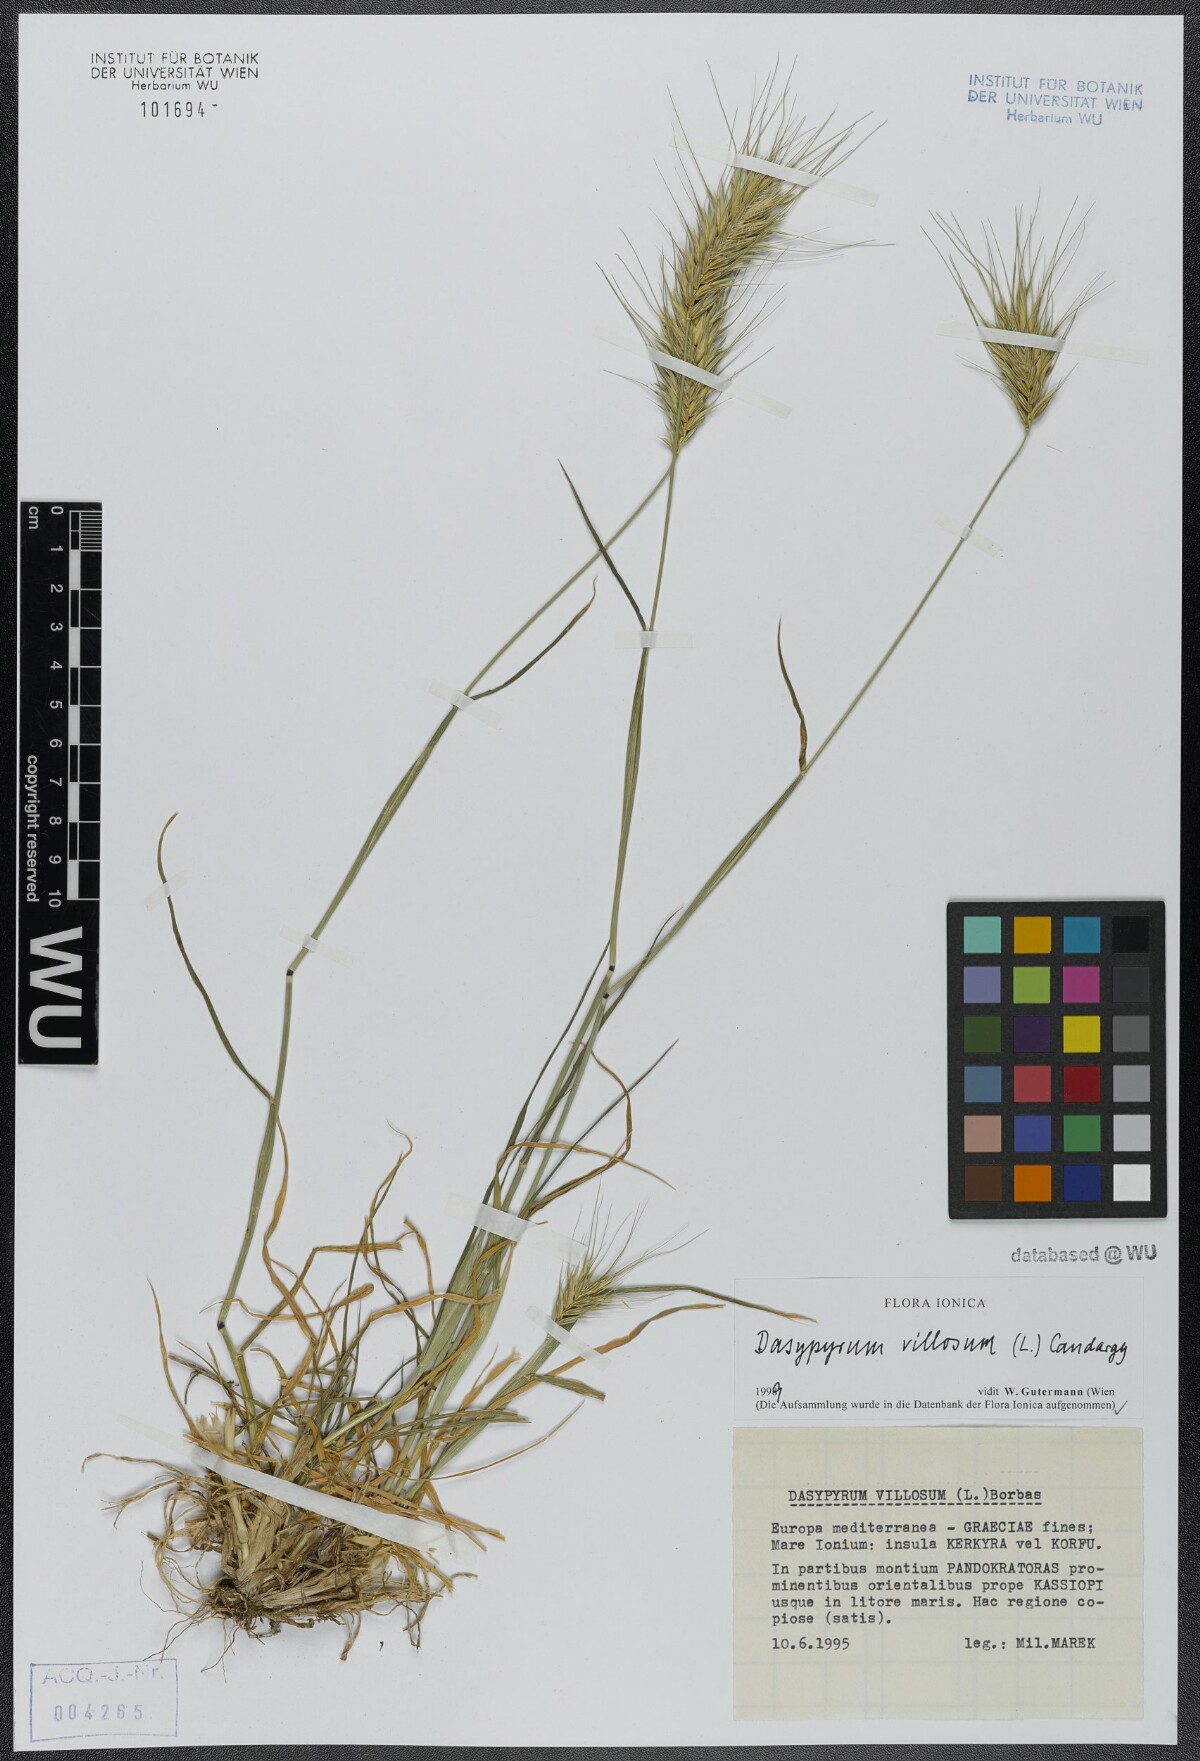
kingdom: Plantae
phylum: Tracheophyta
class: Liliopsida
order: Poales
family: Poaceae
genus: Dasypyrum
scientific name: Dasypyrum villosum
